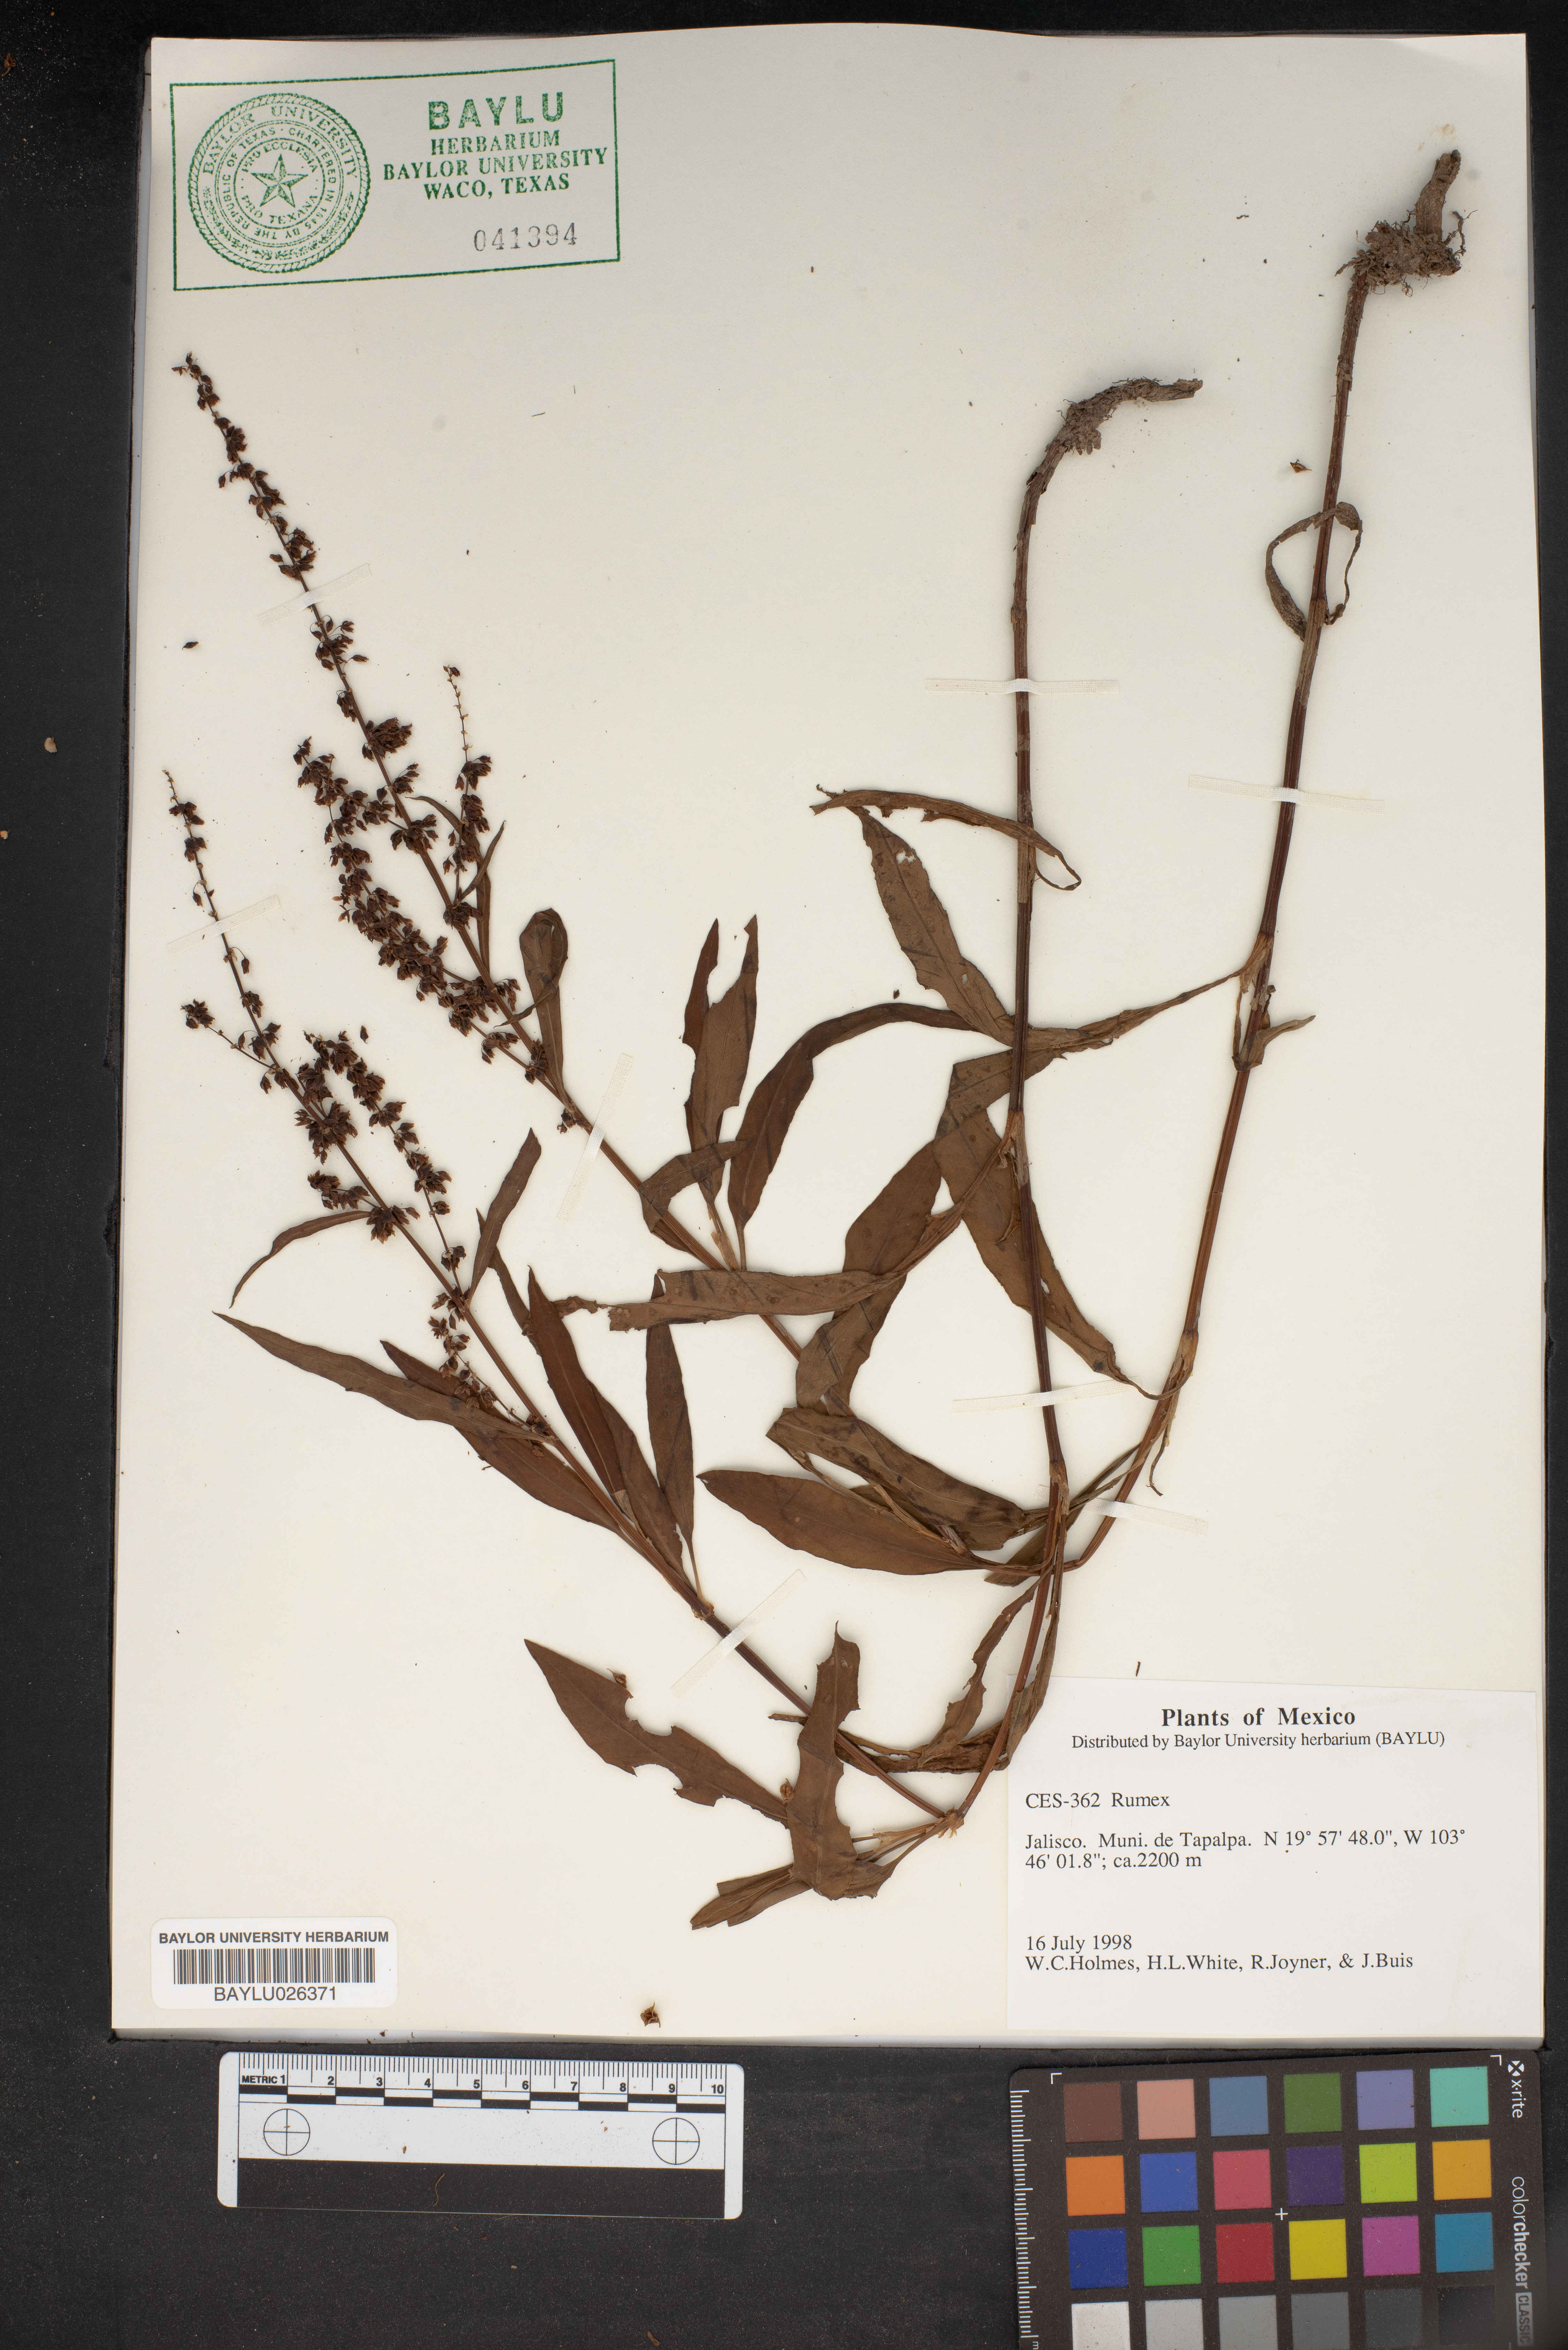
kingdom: Plantae
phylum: Tracheophyta
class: Magnoliopsida
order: Caryophyllales
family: Polygonaceae
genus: Rumex
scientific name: Rumex
